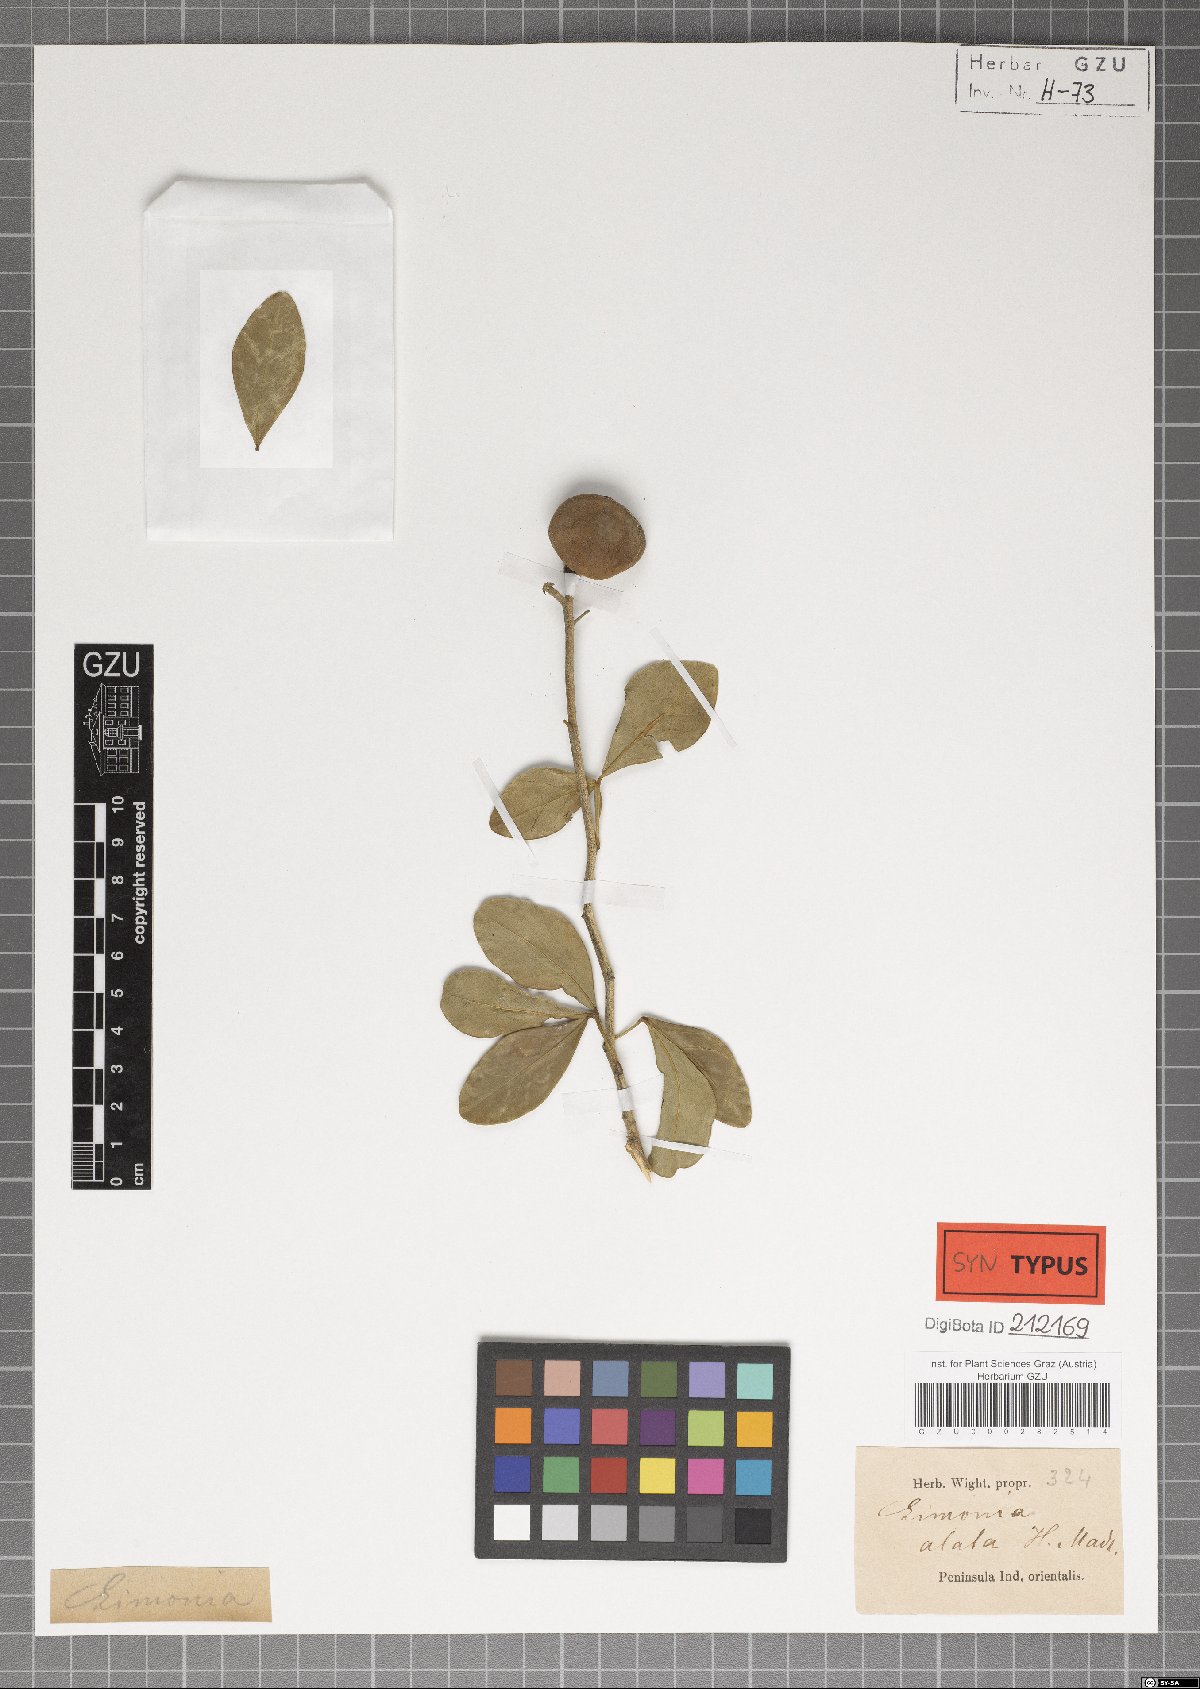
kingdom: Plantae
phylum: Tracheophyta
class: Magnoliopsida
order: Sapindales
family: Rutaceae
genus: Pleiospermium
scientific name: Pleiospermium alatum
